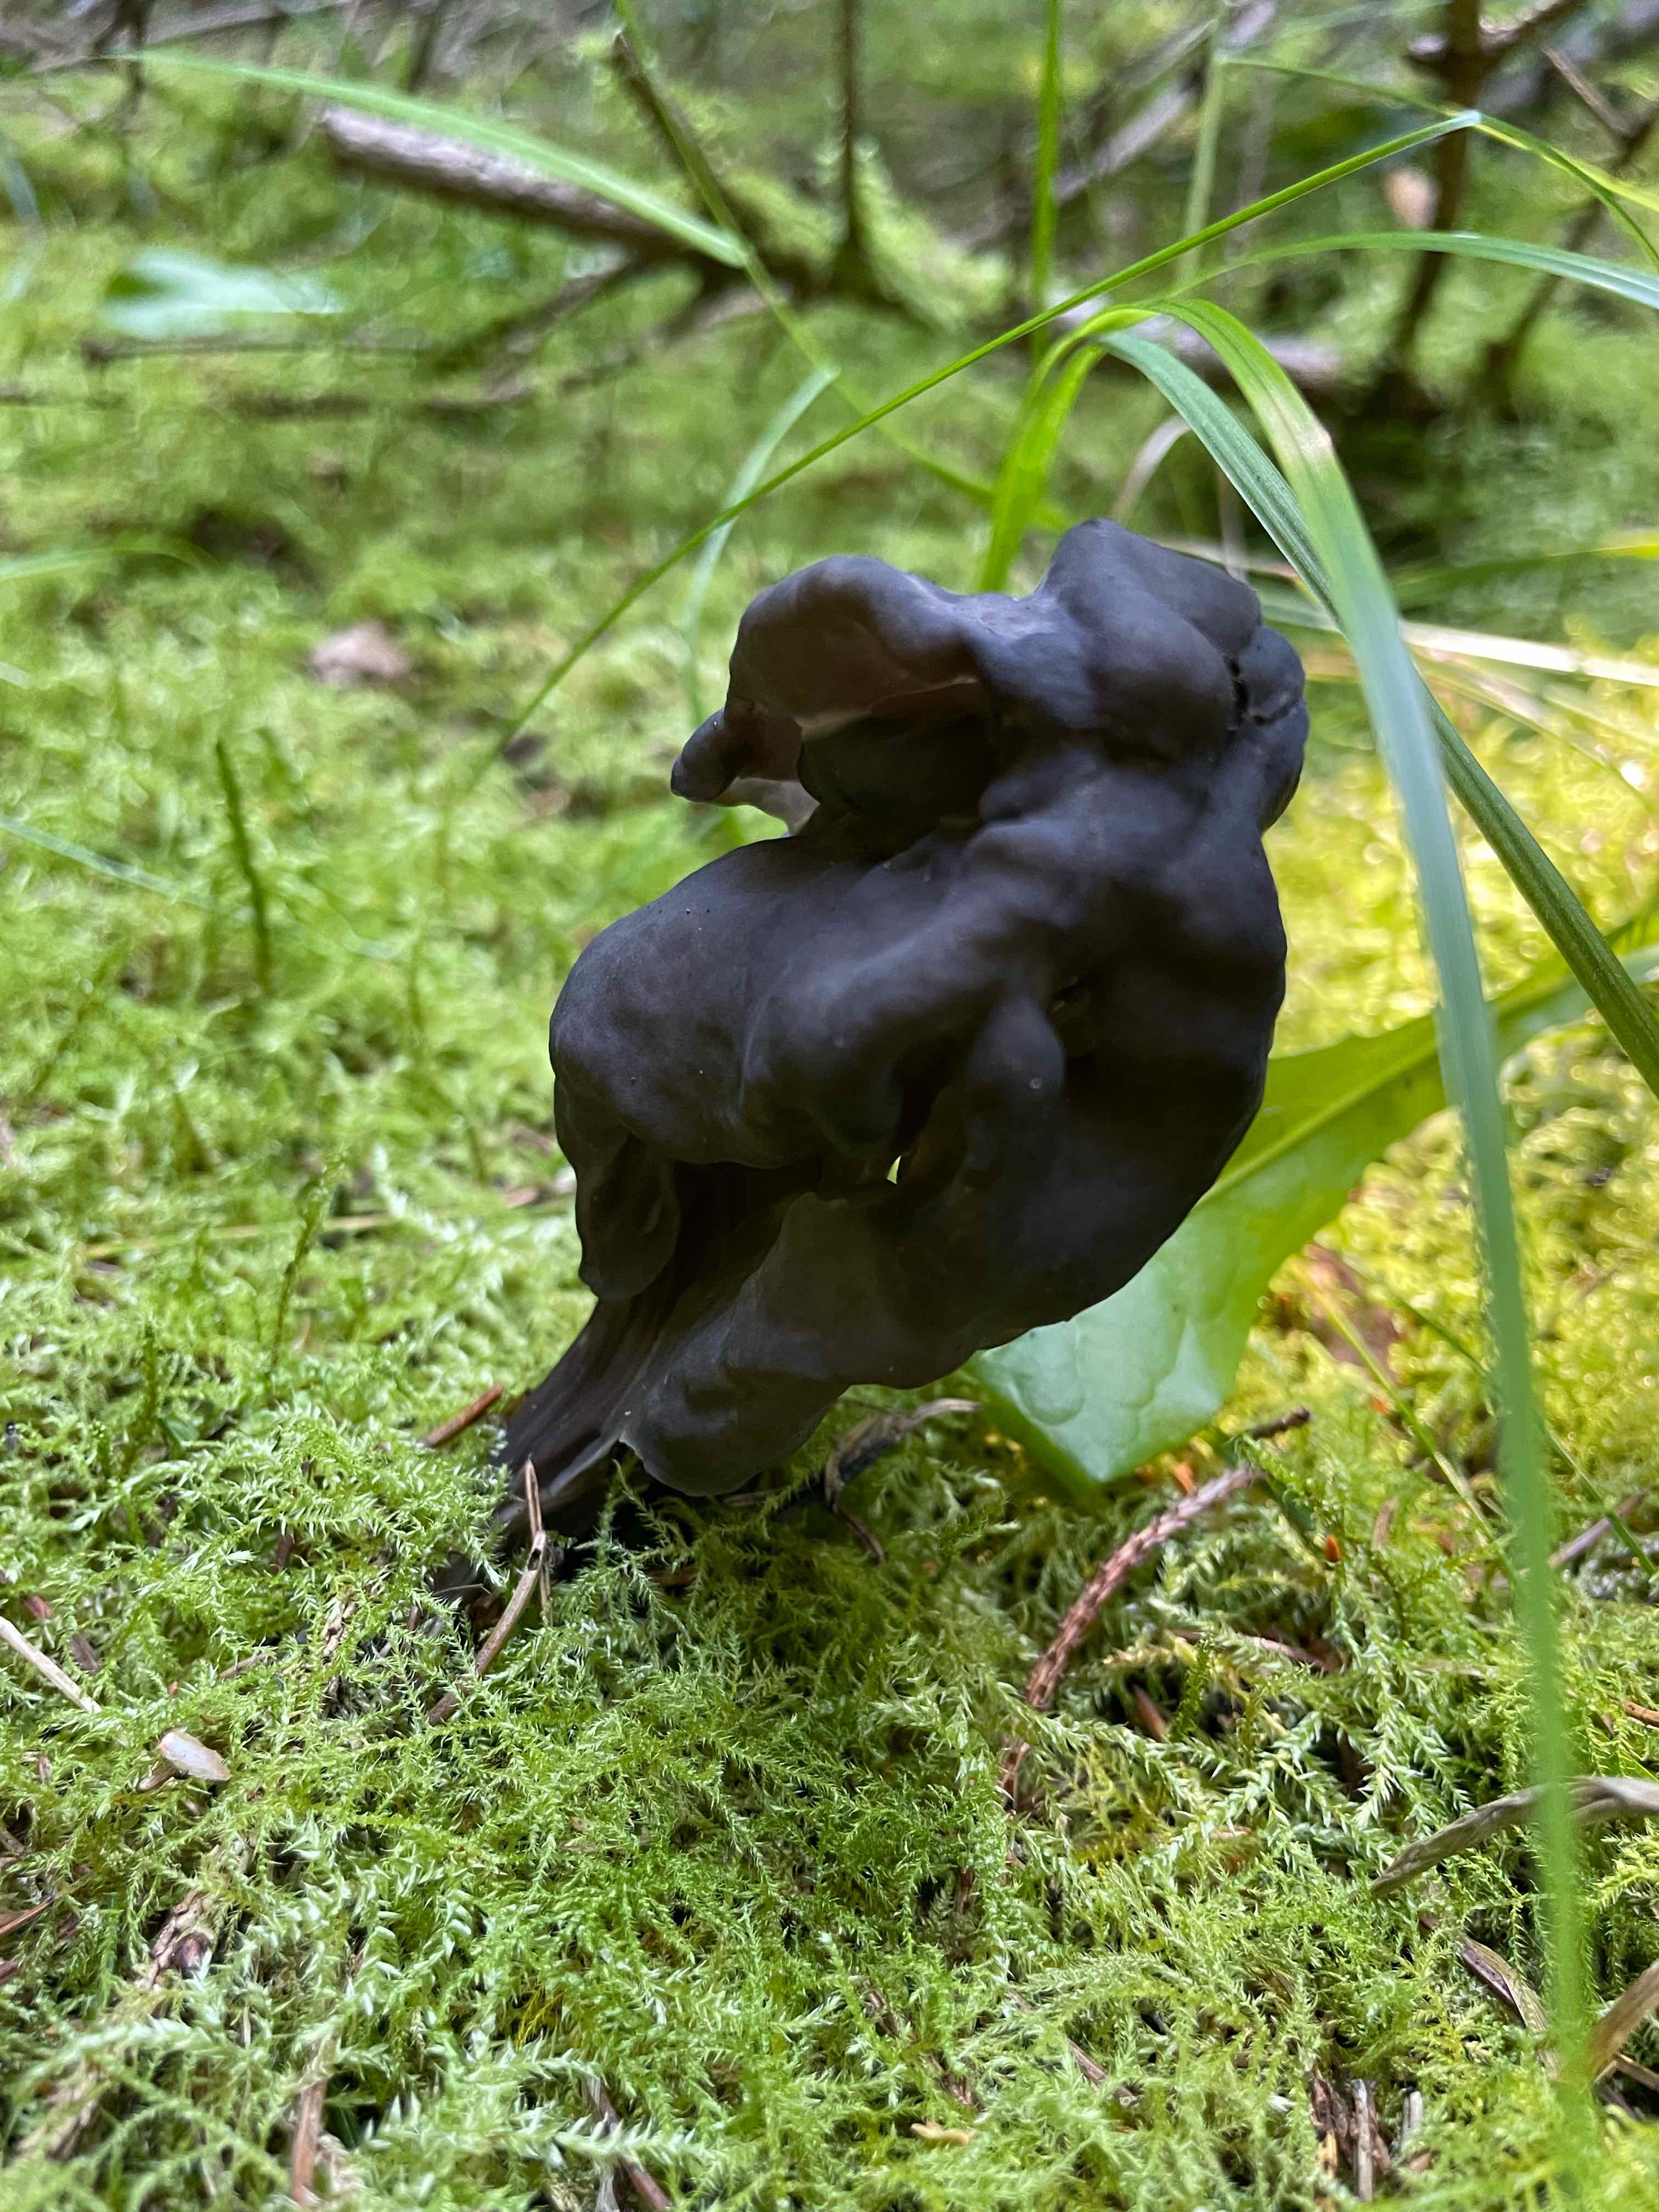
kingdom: Fungi
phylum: Ascomycota
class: Pezizomycetes
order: Pezizales
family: Helvellaceae
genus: Helvella
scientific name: Helvella lacunosa
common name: grubet foldhat
